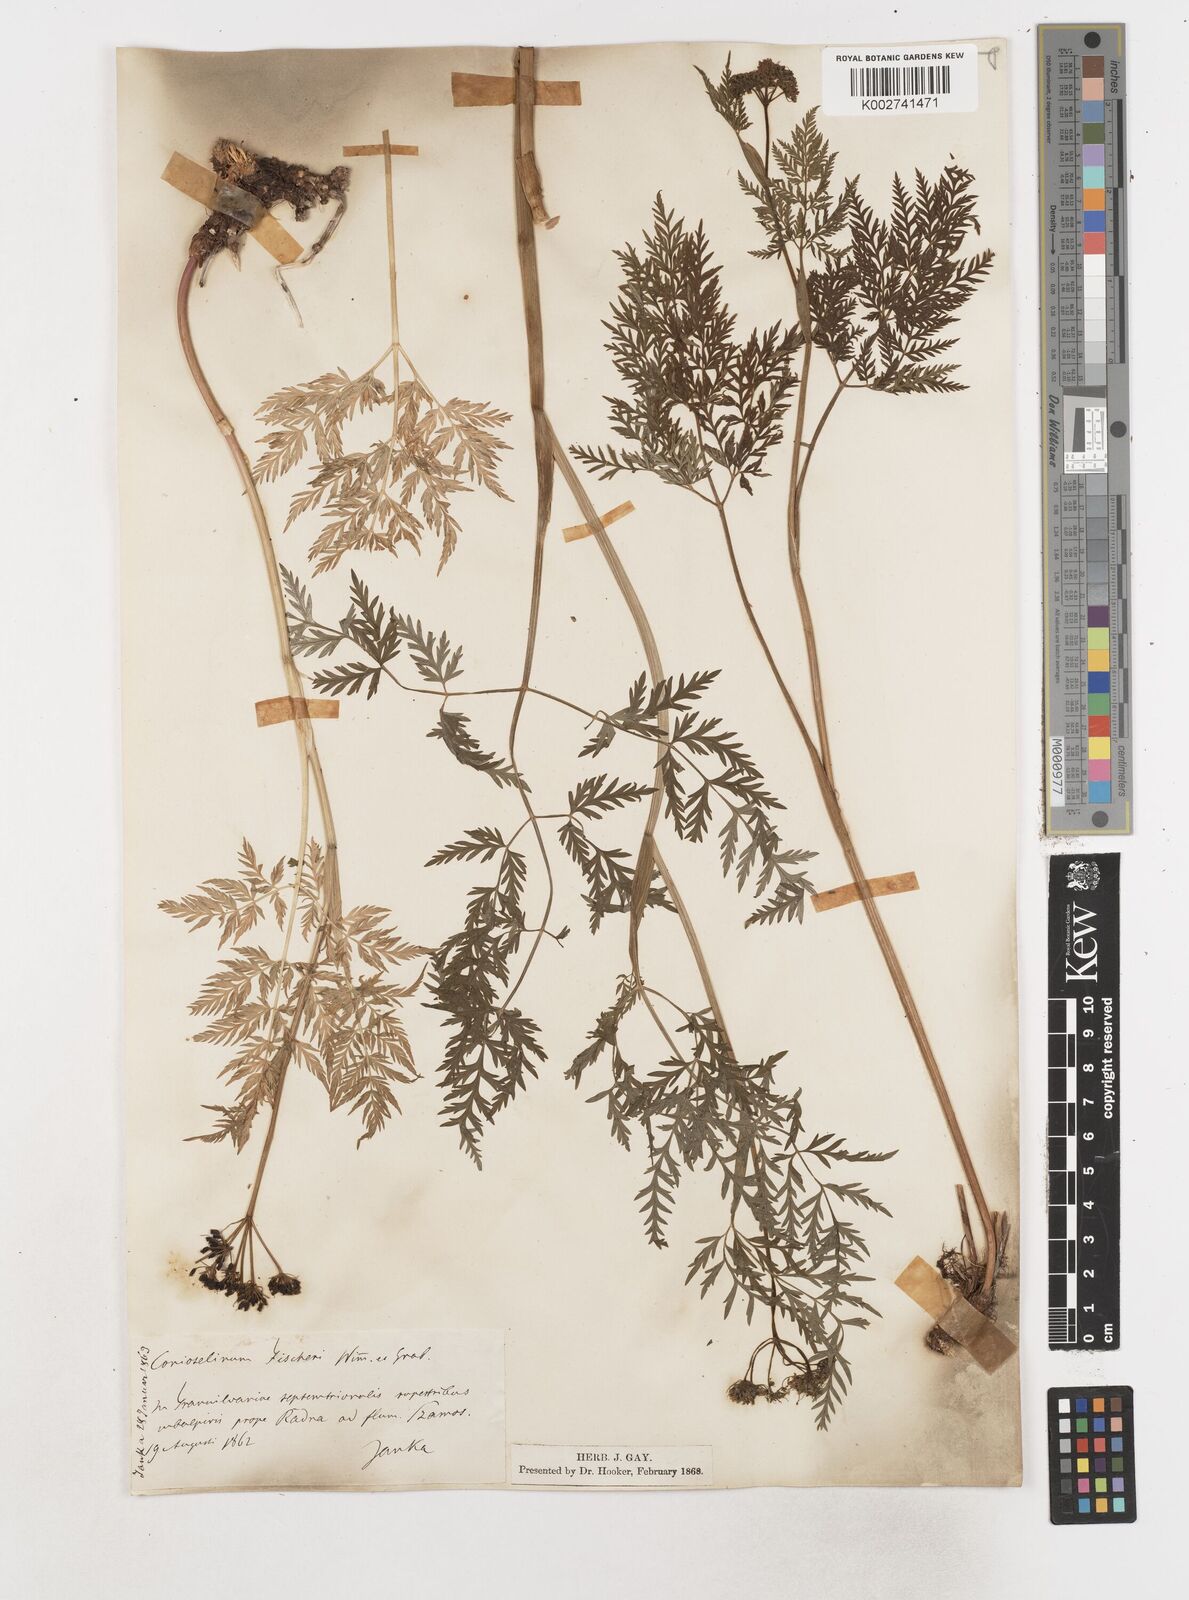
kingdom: Plantae
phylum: Tracheophyta
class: Magnoliopsida
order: Apiales
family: Apiaceae
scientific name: Apiaceae
